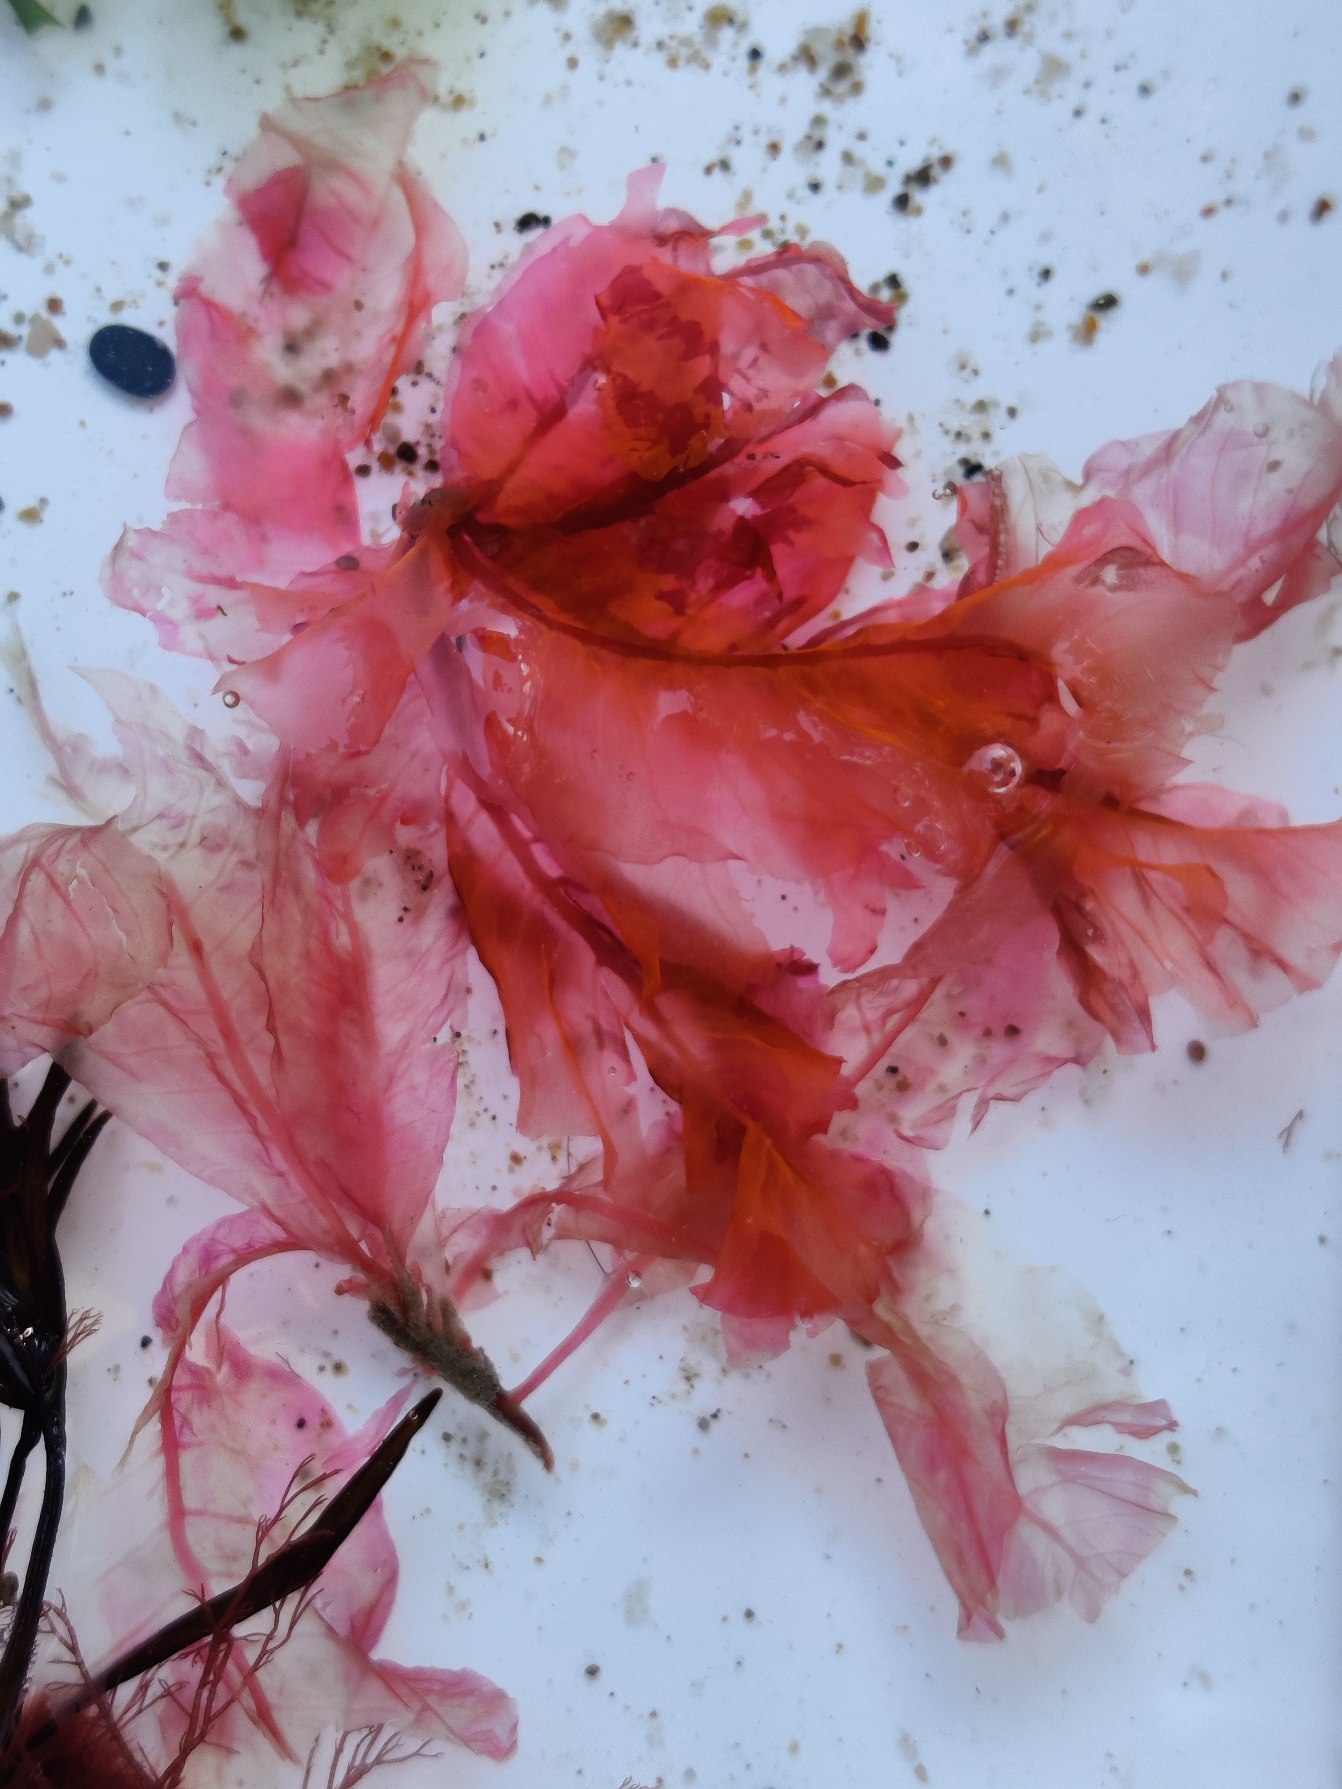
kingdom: Plantae
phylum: Rhodophyta
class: Florideophyceae
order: Ceramiales
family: Delesseriaceae
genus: Delesseria
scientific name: Delesseria sanguinea
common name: Blodrød ribbeblad
